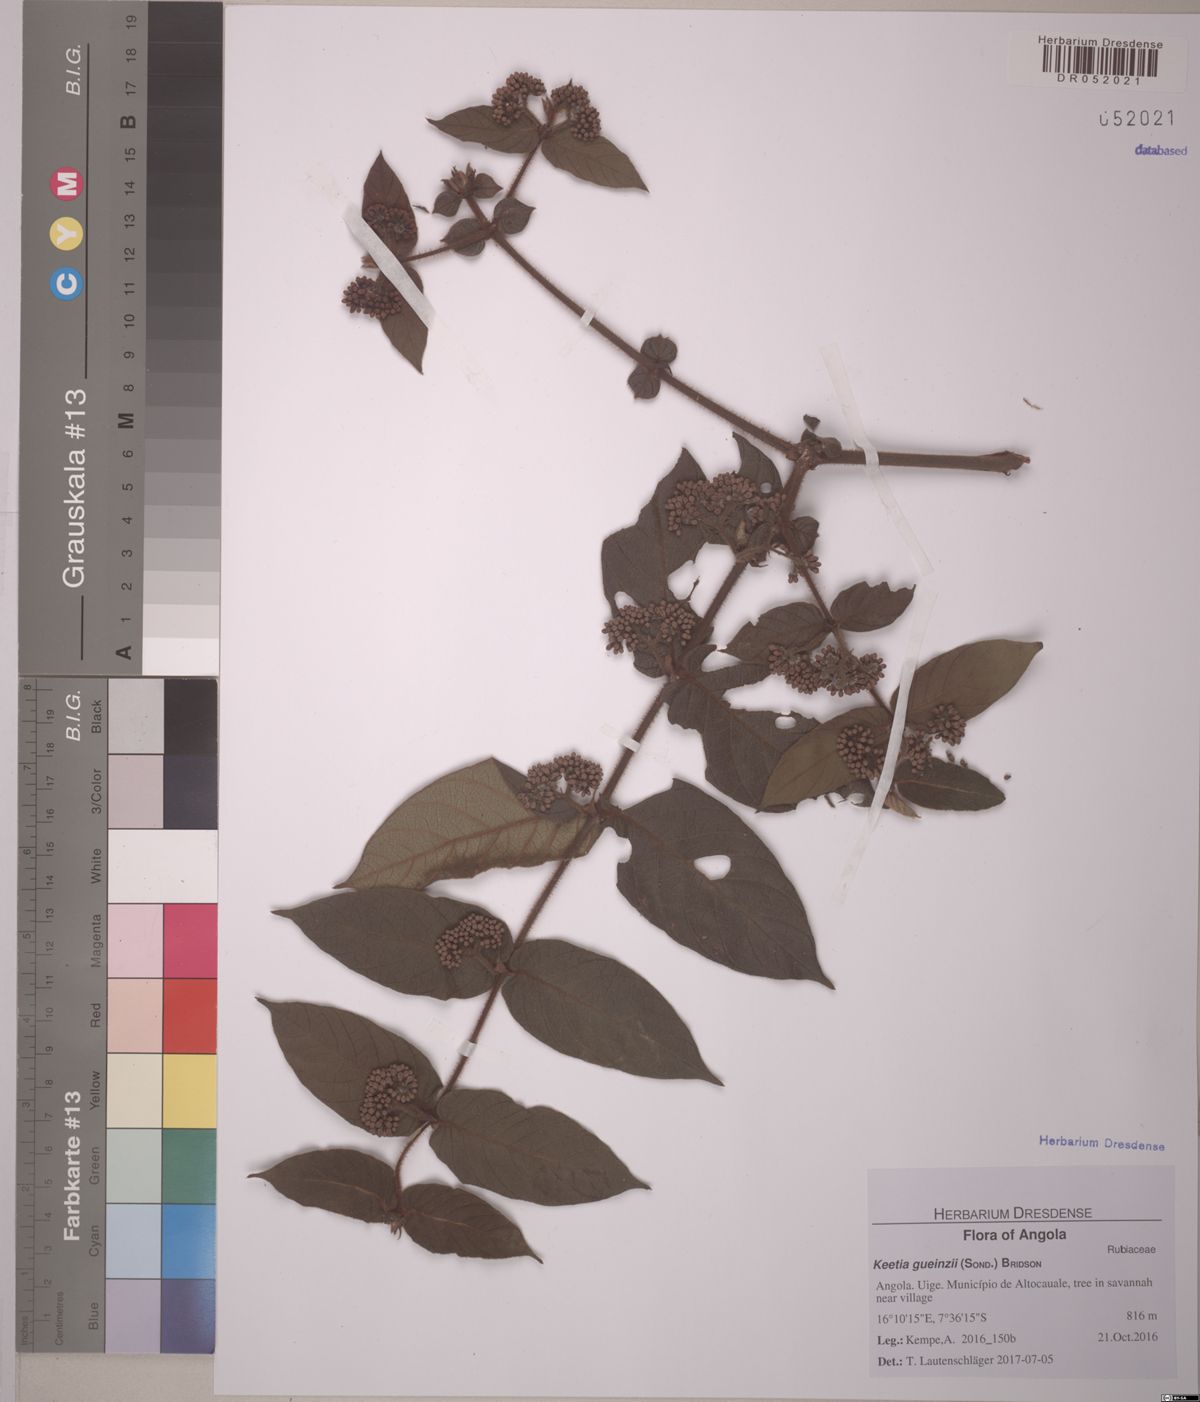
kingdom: Plantae
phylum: Tracheophyta
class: Magnoliopsida
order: Gentianales
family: Rubiaceae
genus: Keetia
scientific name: Keetia gueinzii
